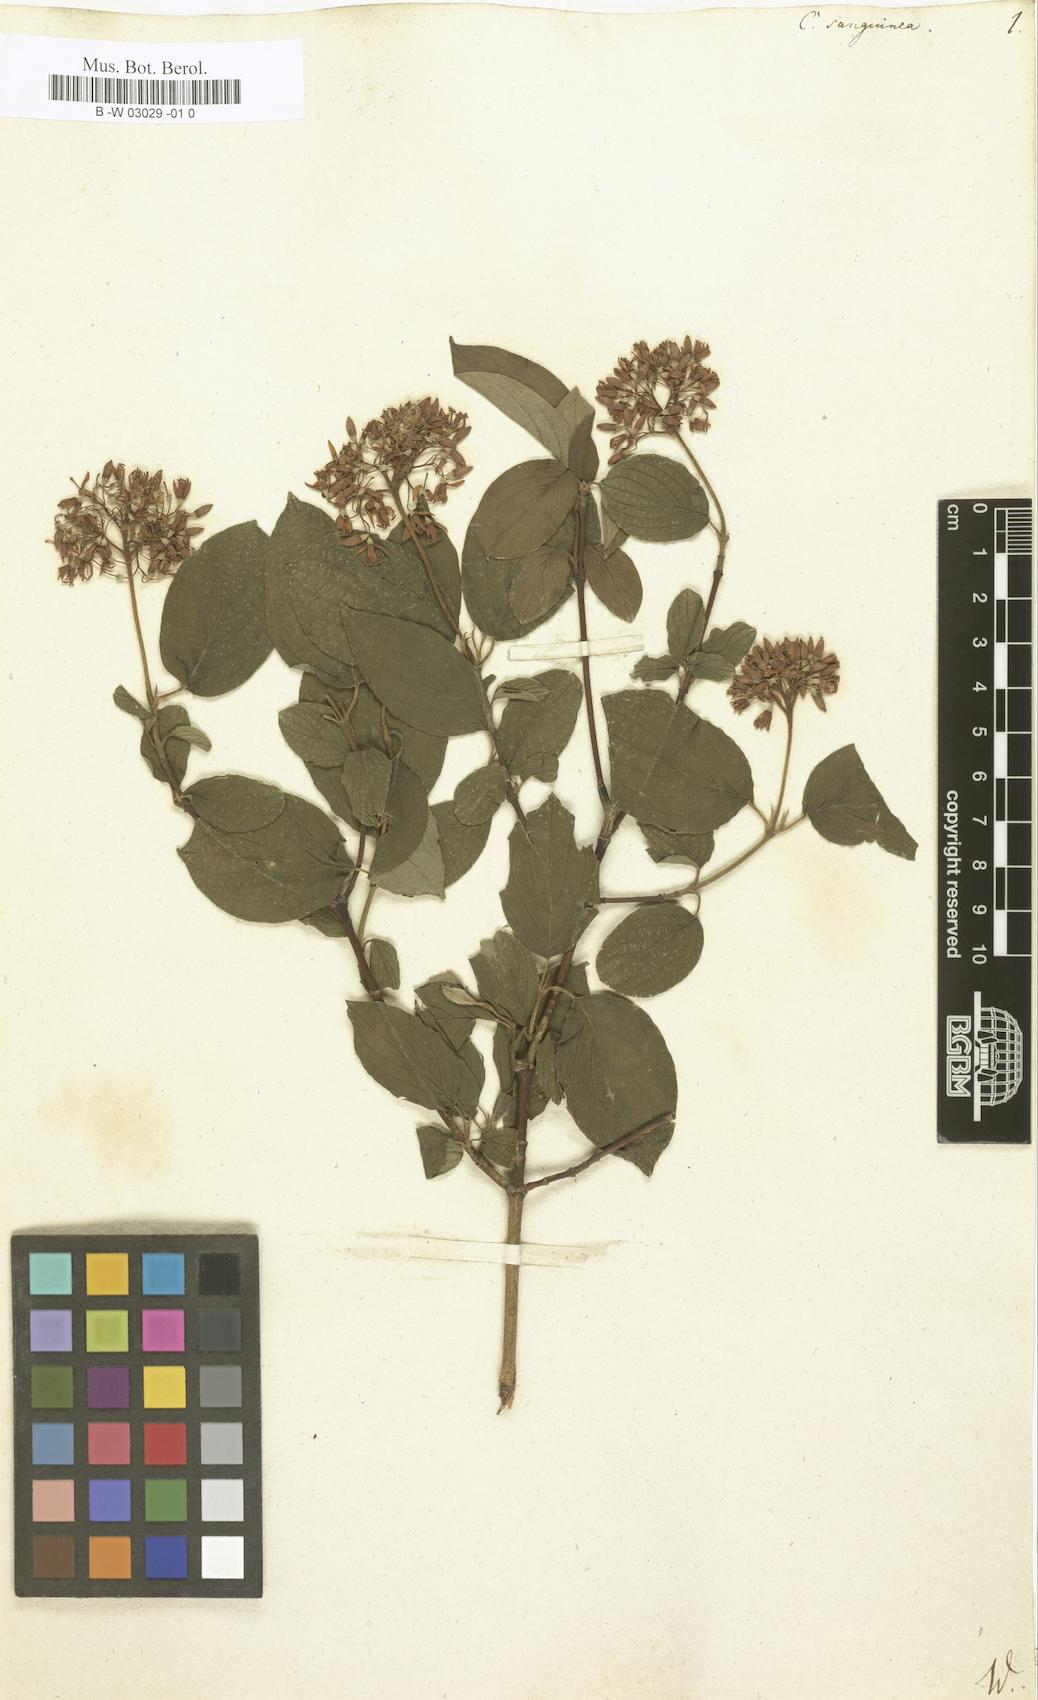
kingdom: Plantae
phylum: Tracheophyta
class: Magnoliopsida
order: Cornales
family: Cornaceae
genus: Cornus
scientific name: Cornus sanguinea
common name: Dogwood
